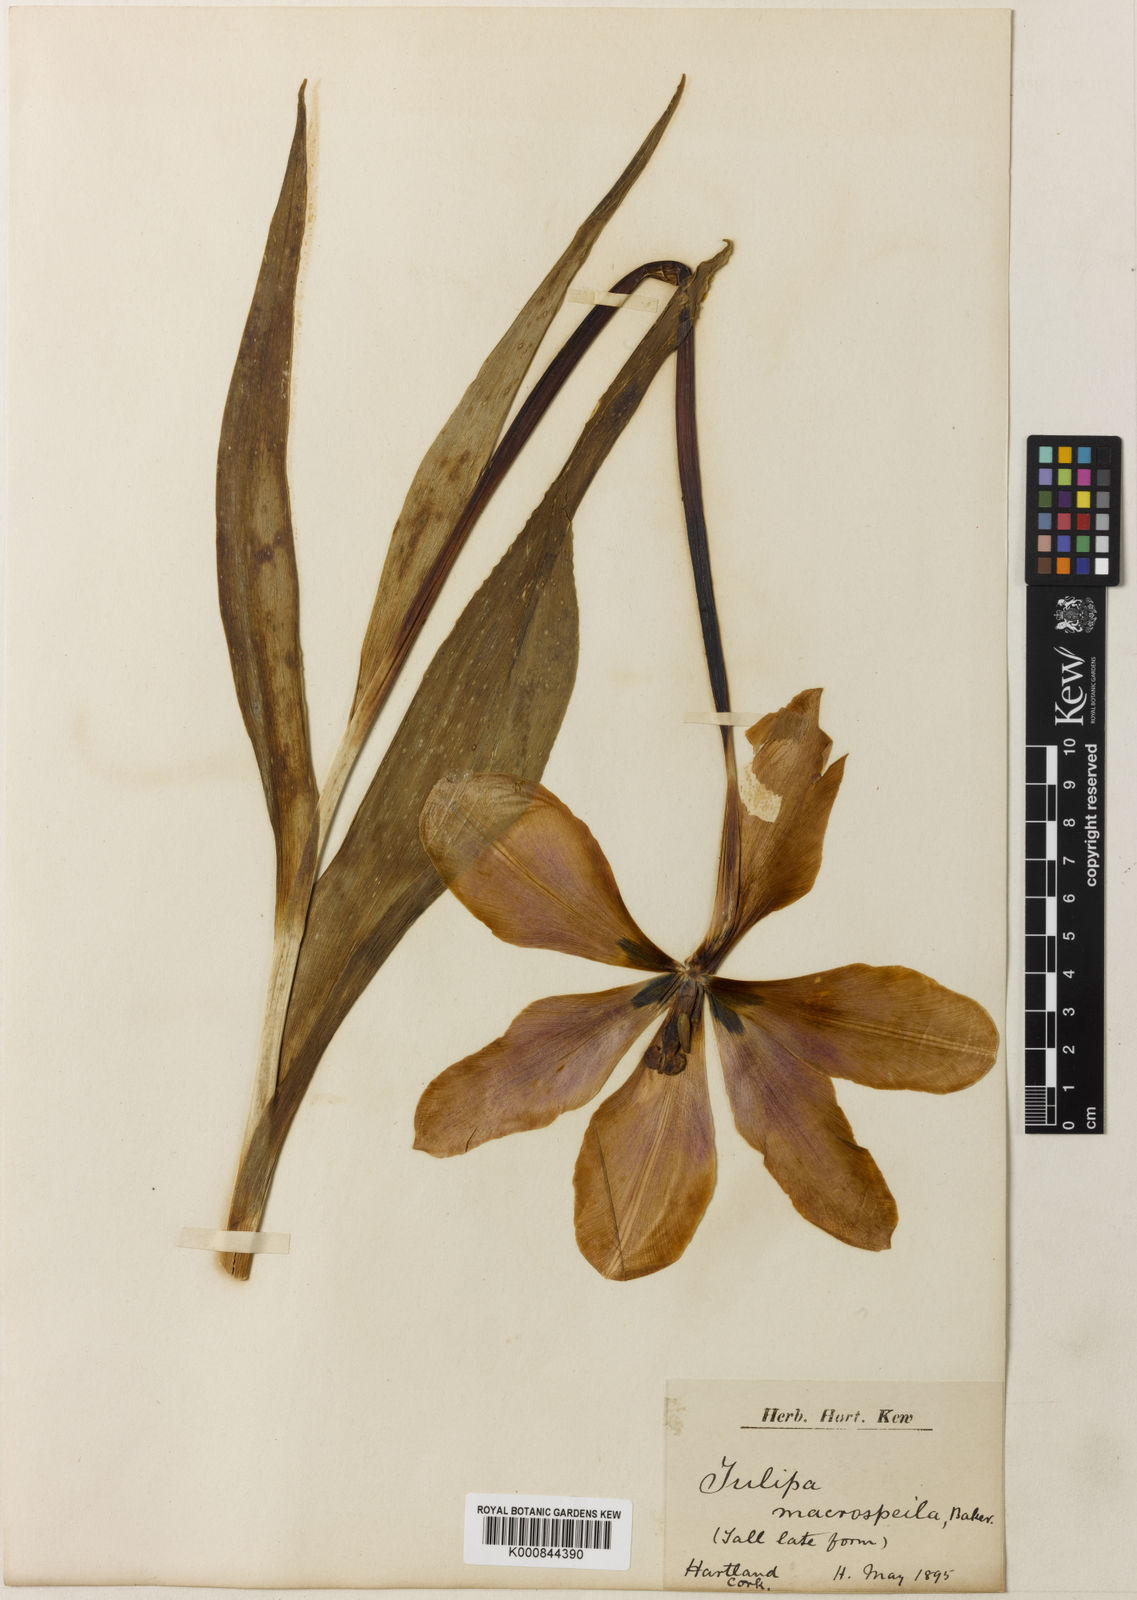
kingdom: Plantae
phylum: Tracheophyta
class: Liliopsida
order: Liliales
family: Liliaceae
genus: Tulipa
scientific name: Tulipa gesneriana
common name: Garden tulip
